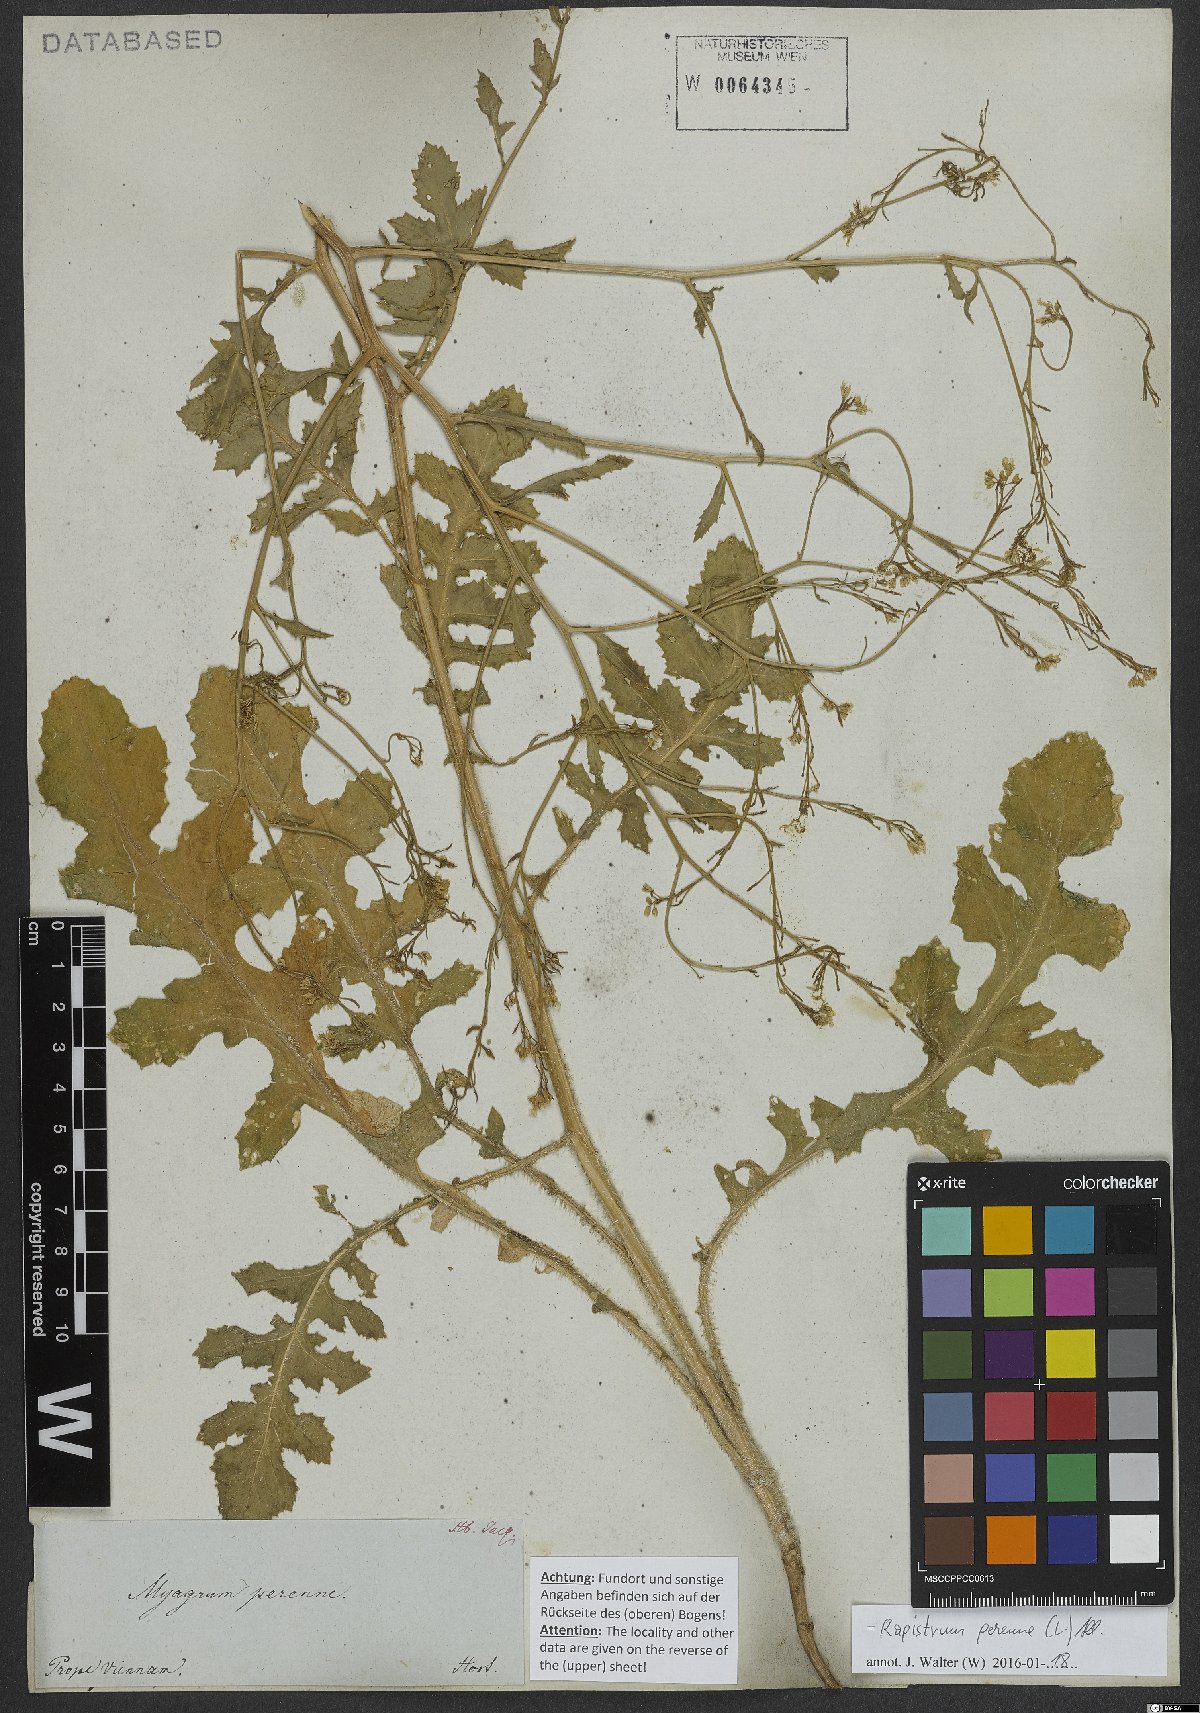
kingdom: Plantae
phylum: Tracheophyta
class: Magnoliopsida
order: Brassicales
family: Brassicaceae
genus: Rapistrum
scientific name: Rapistrum perenne
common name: Steppe cabbage
